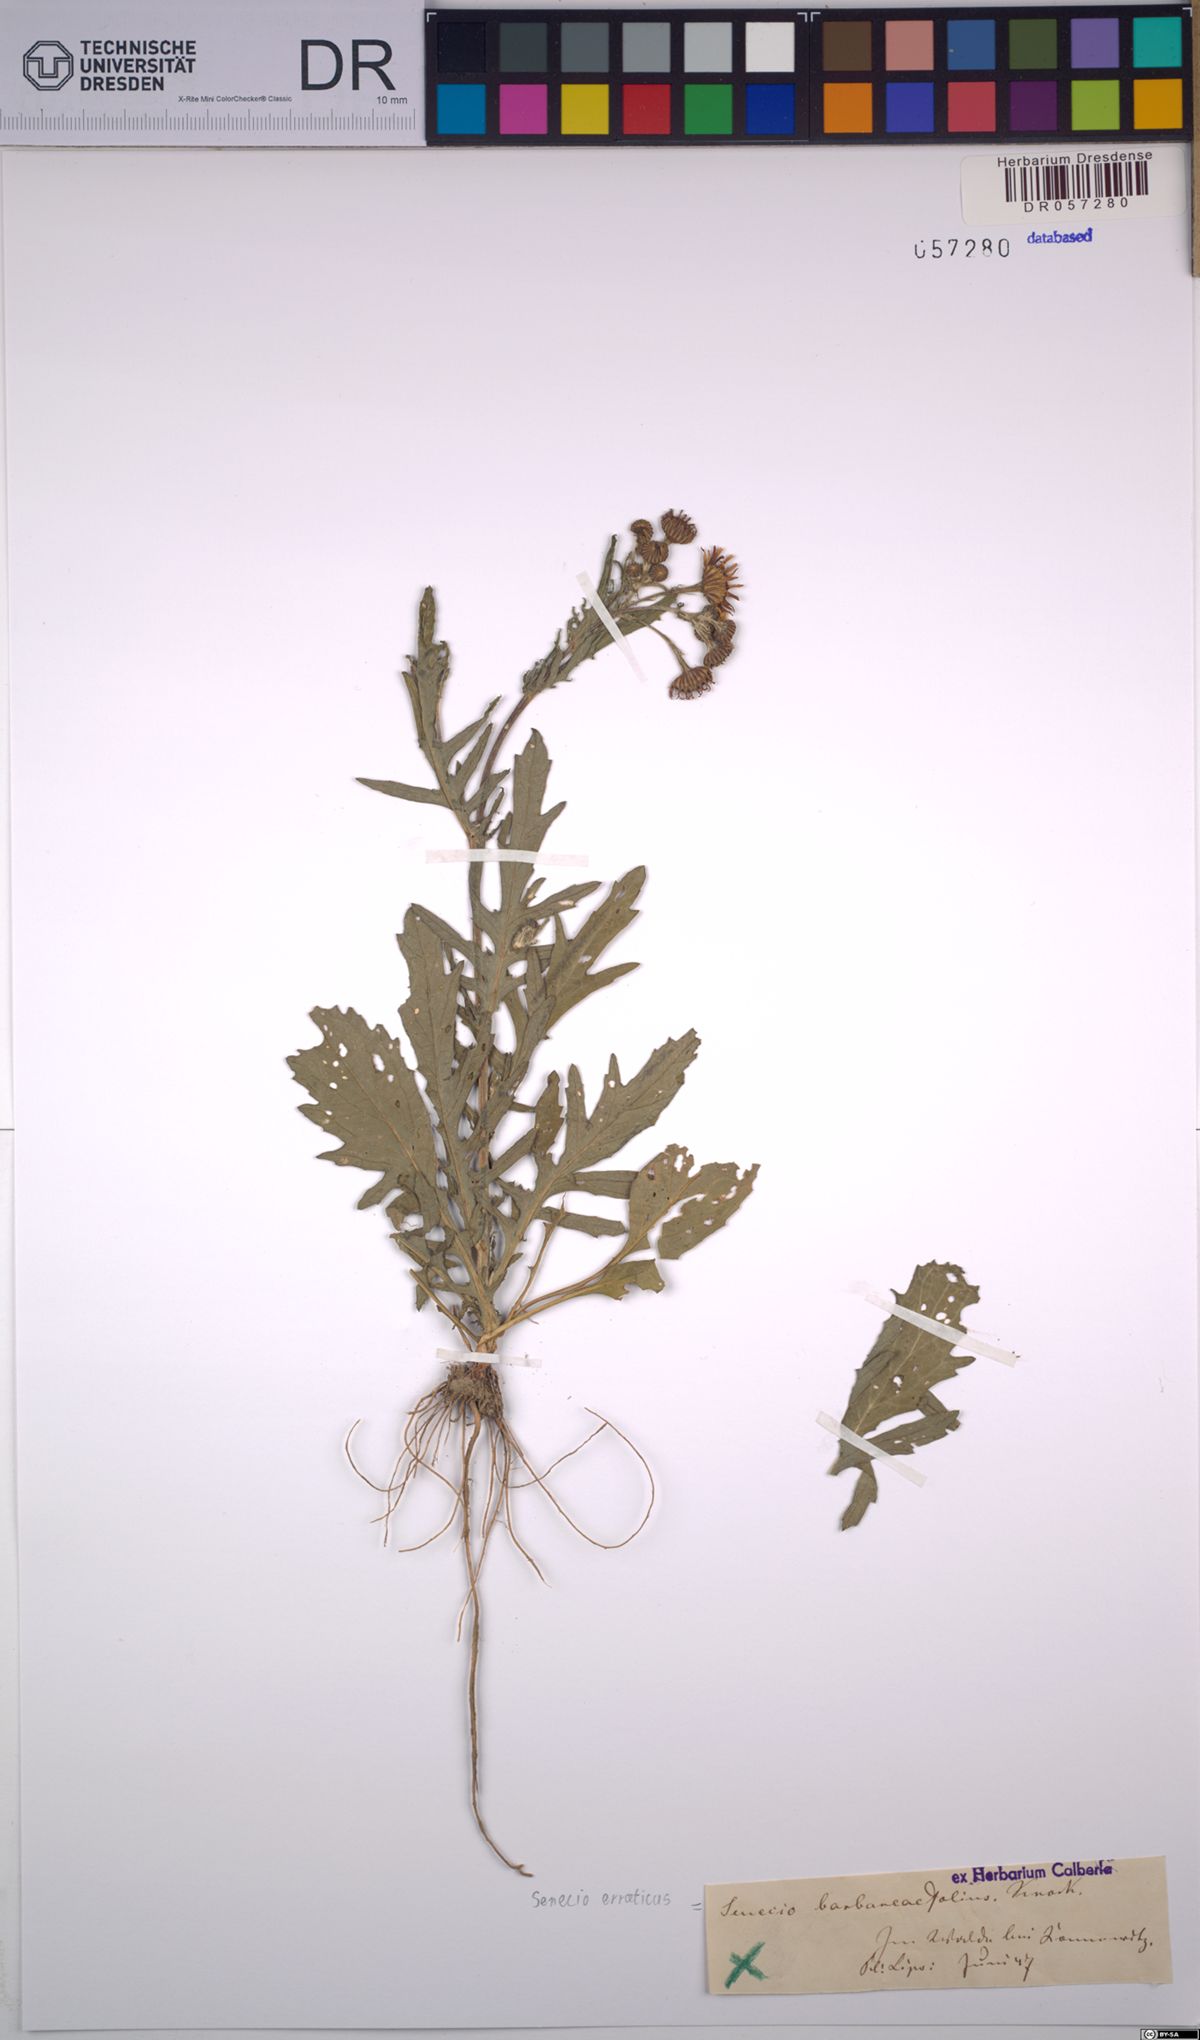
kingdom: Plantae
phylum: Tracheophyta
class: Magnoliopsida
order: Asterales
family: Asteraceae
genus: Jacobaea
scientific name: Jacobaea erratica
